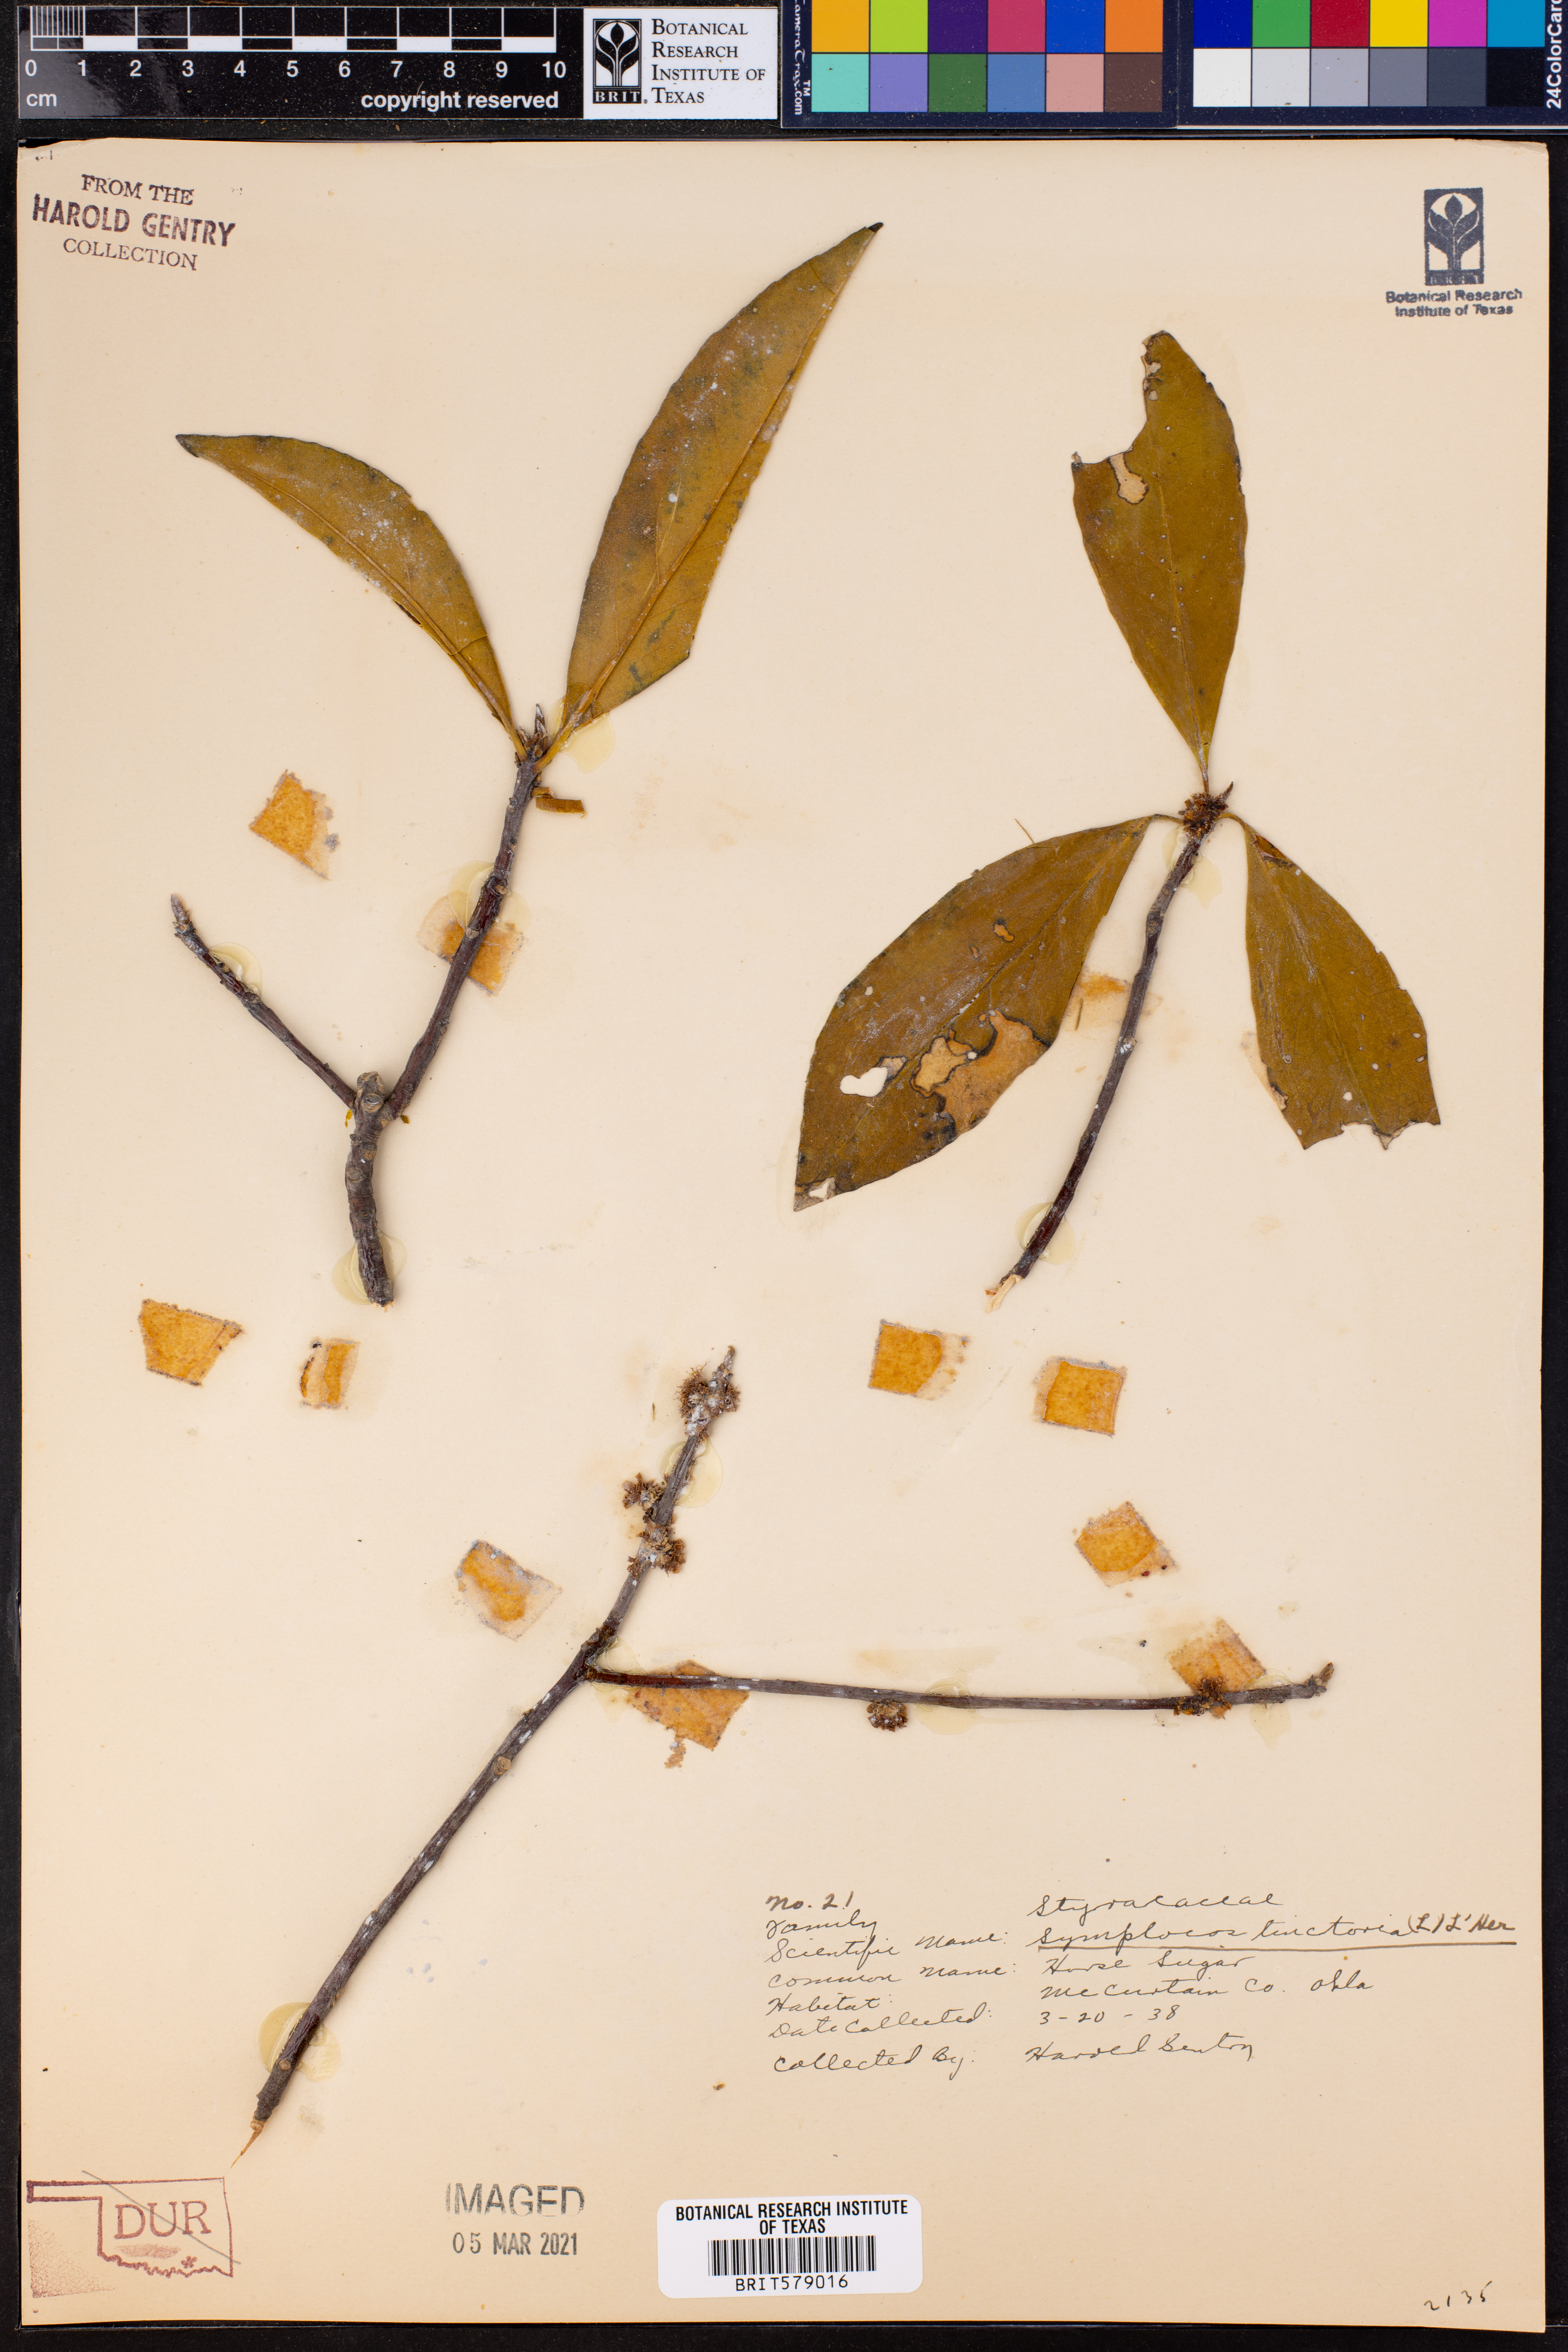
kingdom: Plantae
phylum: Tracheophyta
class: Magnoliopsida
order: Ericales
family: Symplocaceae
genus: Symplocos
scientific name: Symplocos tinctoria
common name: Horse-sugar
